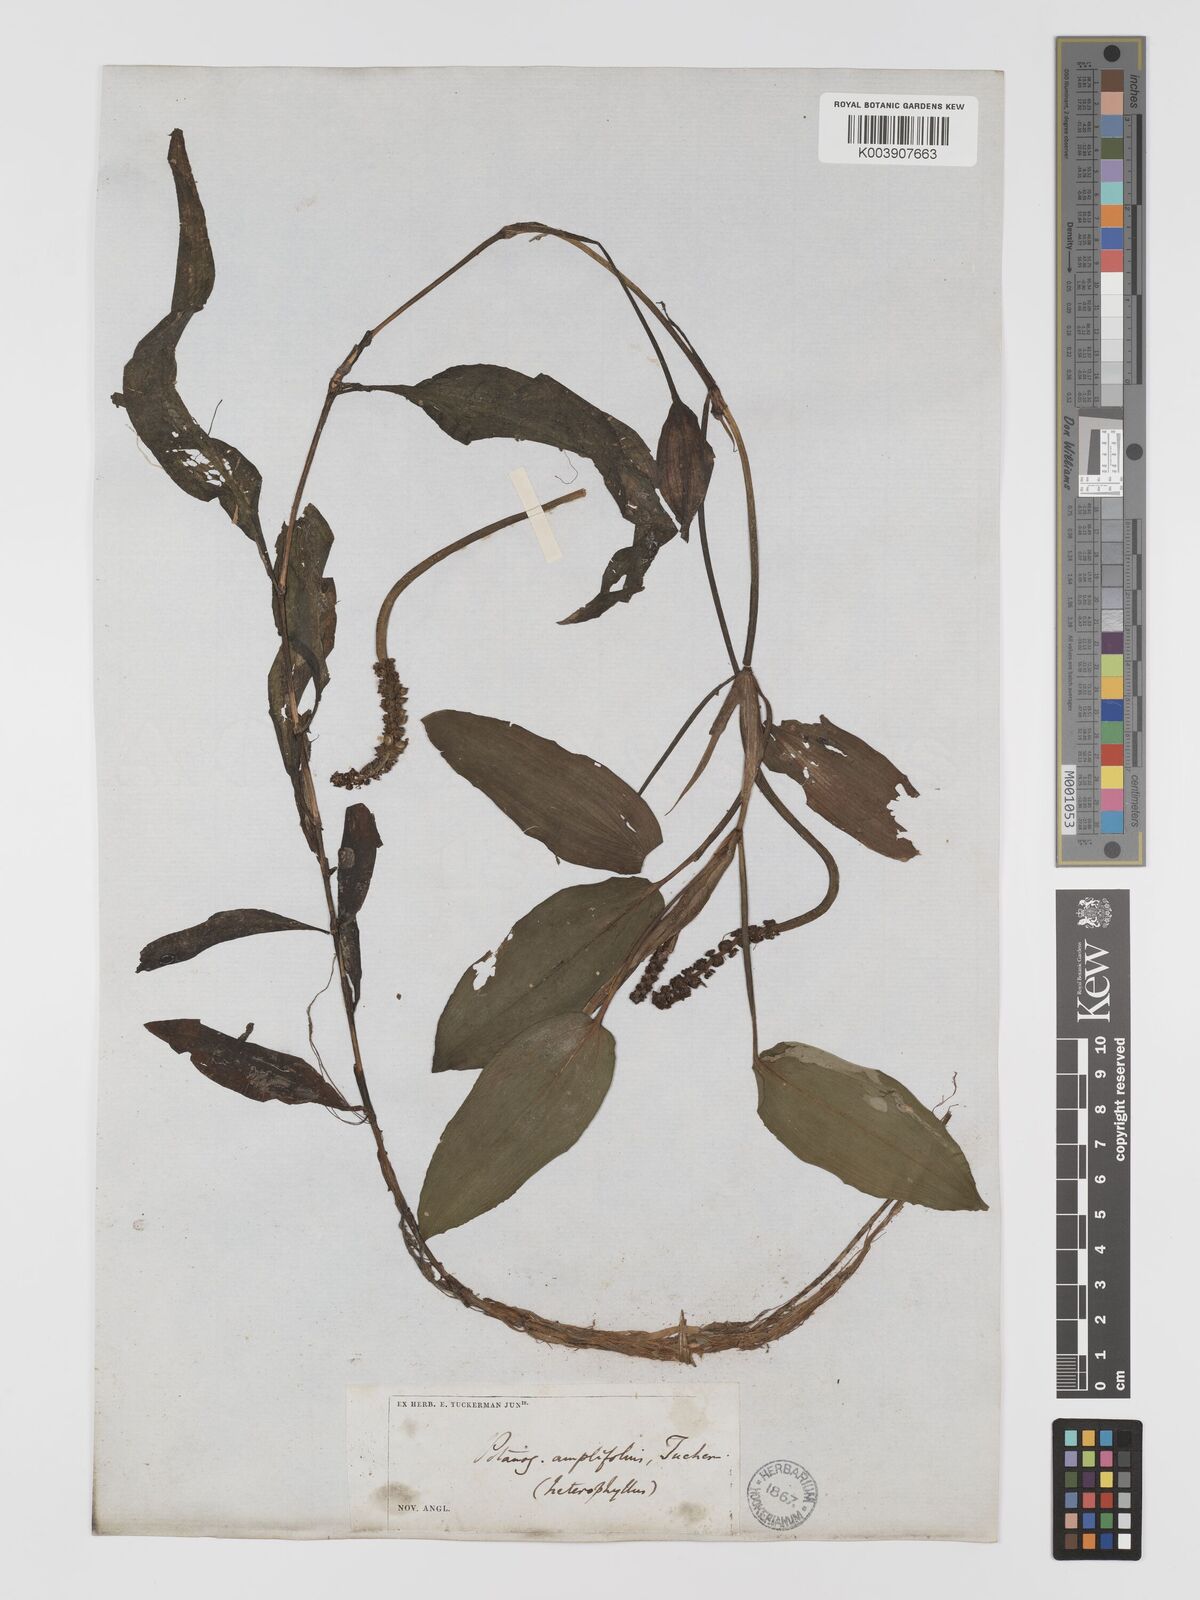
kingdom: Plantae
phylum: Tracheophyta
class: Liliopsida
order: Alismatales
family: Potamogetonaceae
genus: Potamogeton
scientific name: Potamogeton amplifolius
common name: Broad-leaved pondweed
